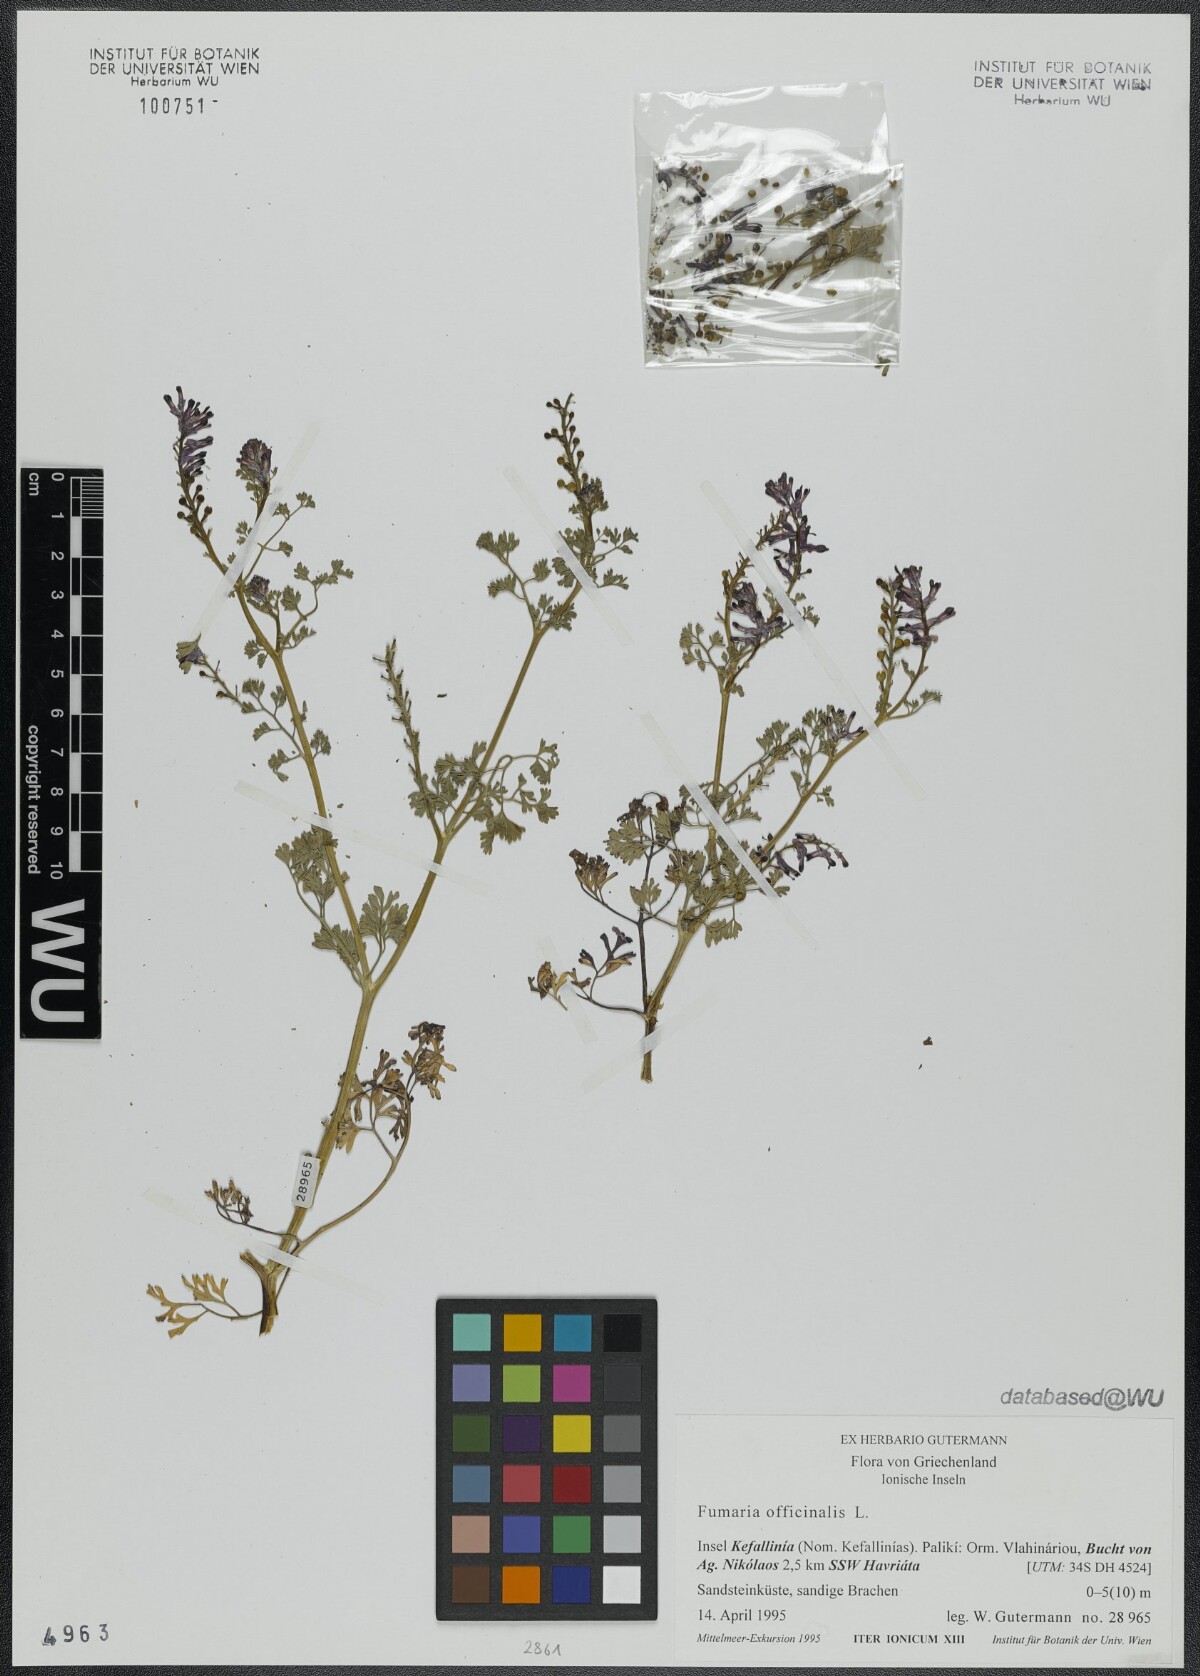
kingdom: Plantae
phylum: Tracheophyta
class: Magnoliopsida
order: Ranunculales
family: Papaveraceae
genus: Fumaria
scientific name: Fumaria officinalis
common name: Common fumitory
